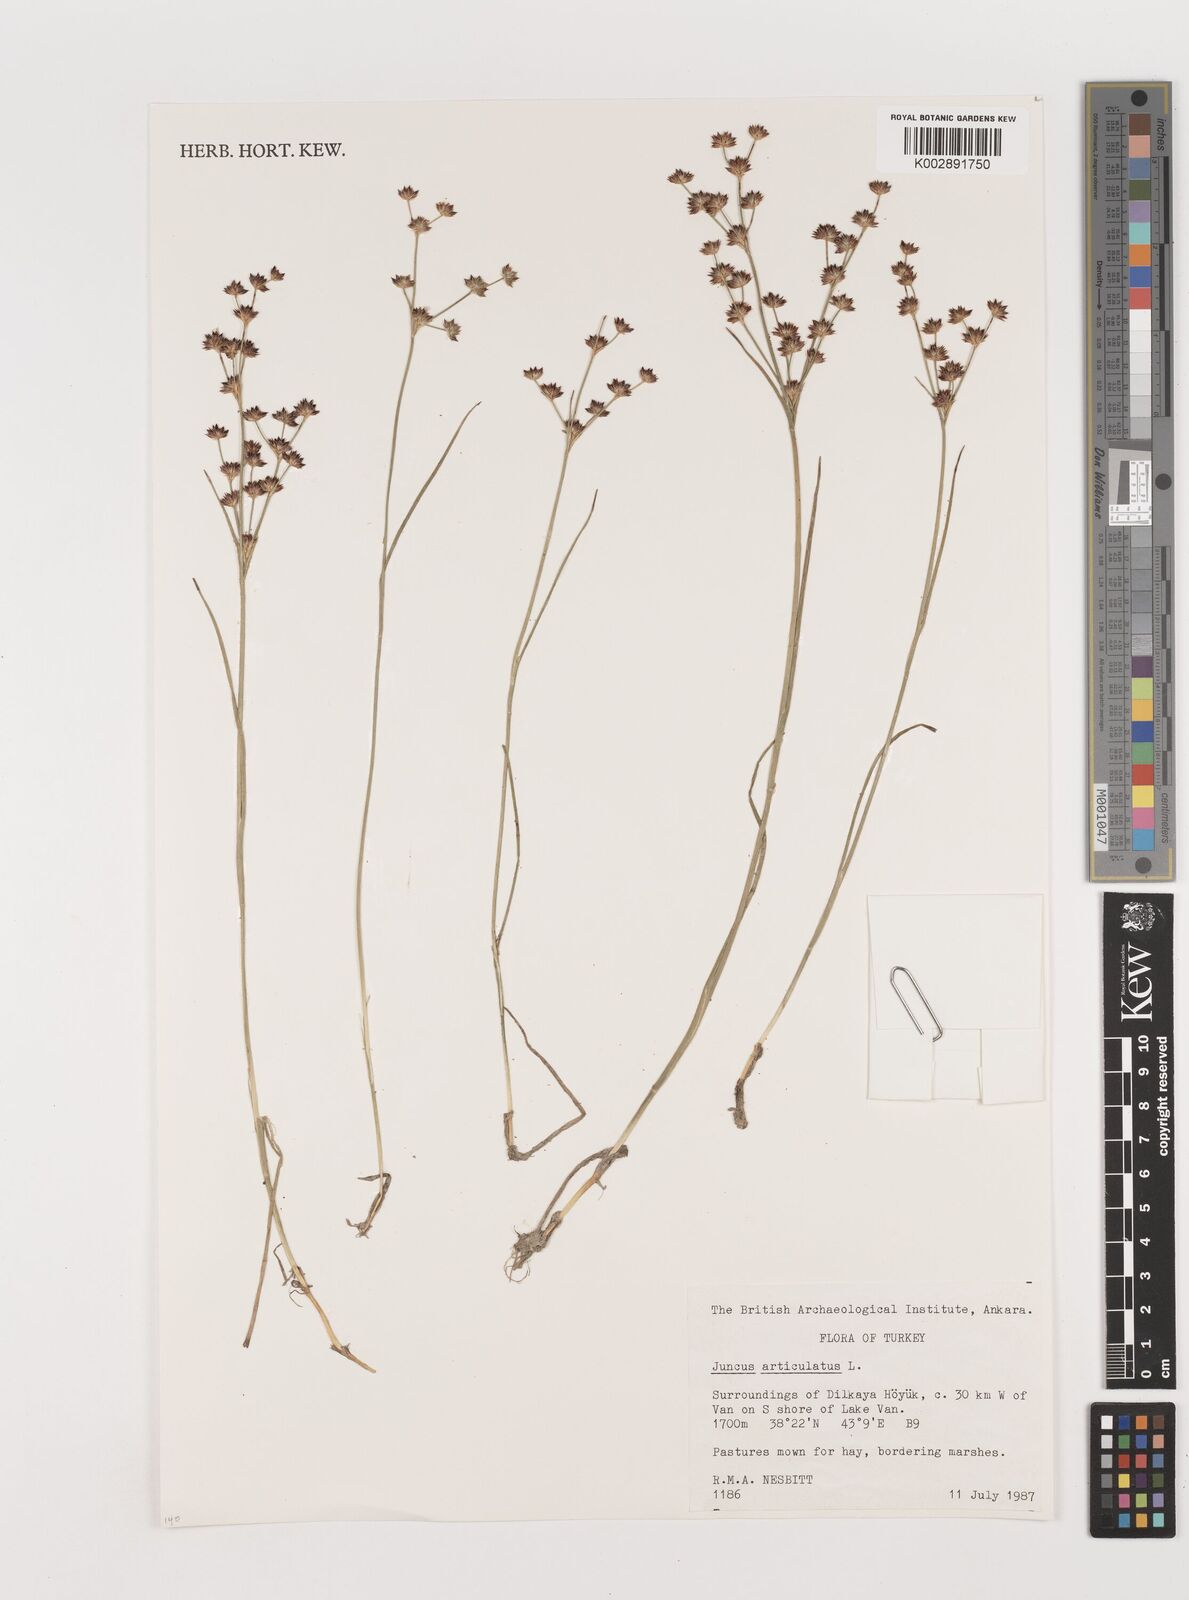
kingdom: Plantae
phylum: Tracheophyta
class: Liliopsida
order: Poales
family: Juncaceae
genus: Juncus
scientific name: Juncus articulatus
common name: Jointed rush
